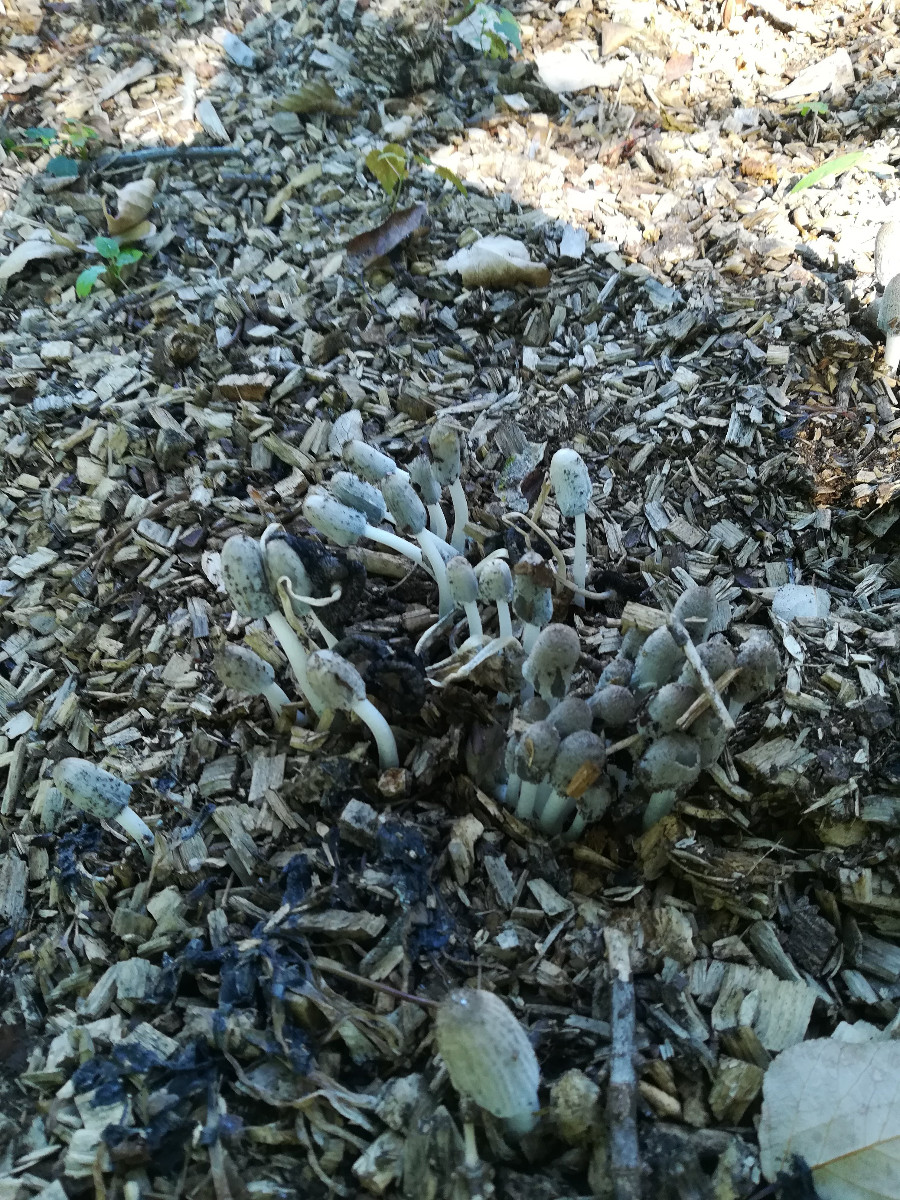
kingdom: Fungi
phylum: Basidiomycota
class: Agaricomycetes
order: Agaricales
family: Psathyrellaceae
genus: Coprinopsis
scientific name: Coprinopsis
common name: blækhat
